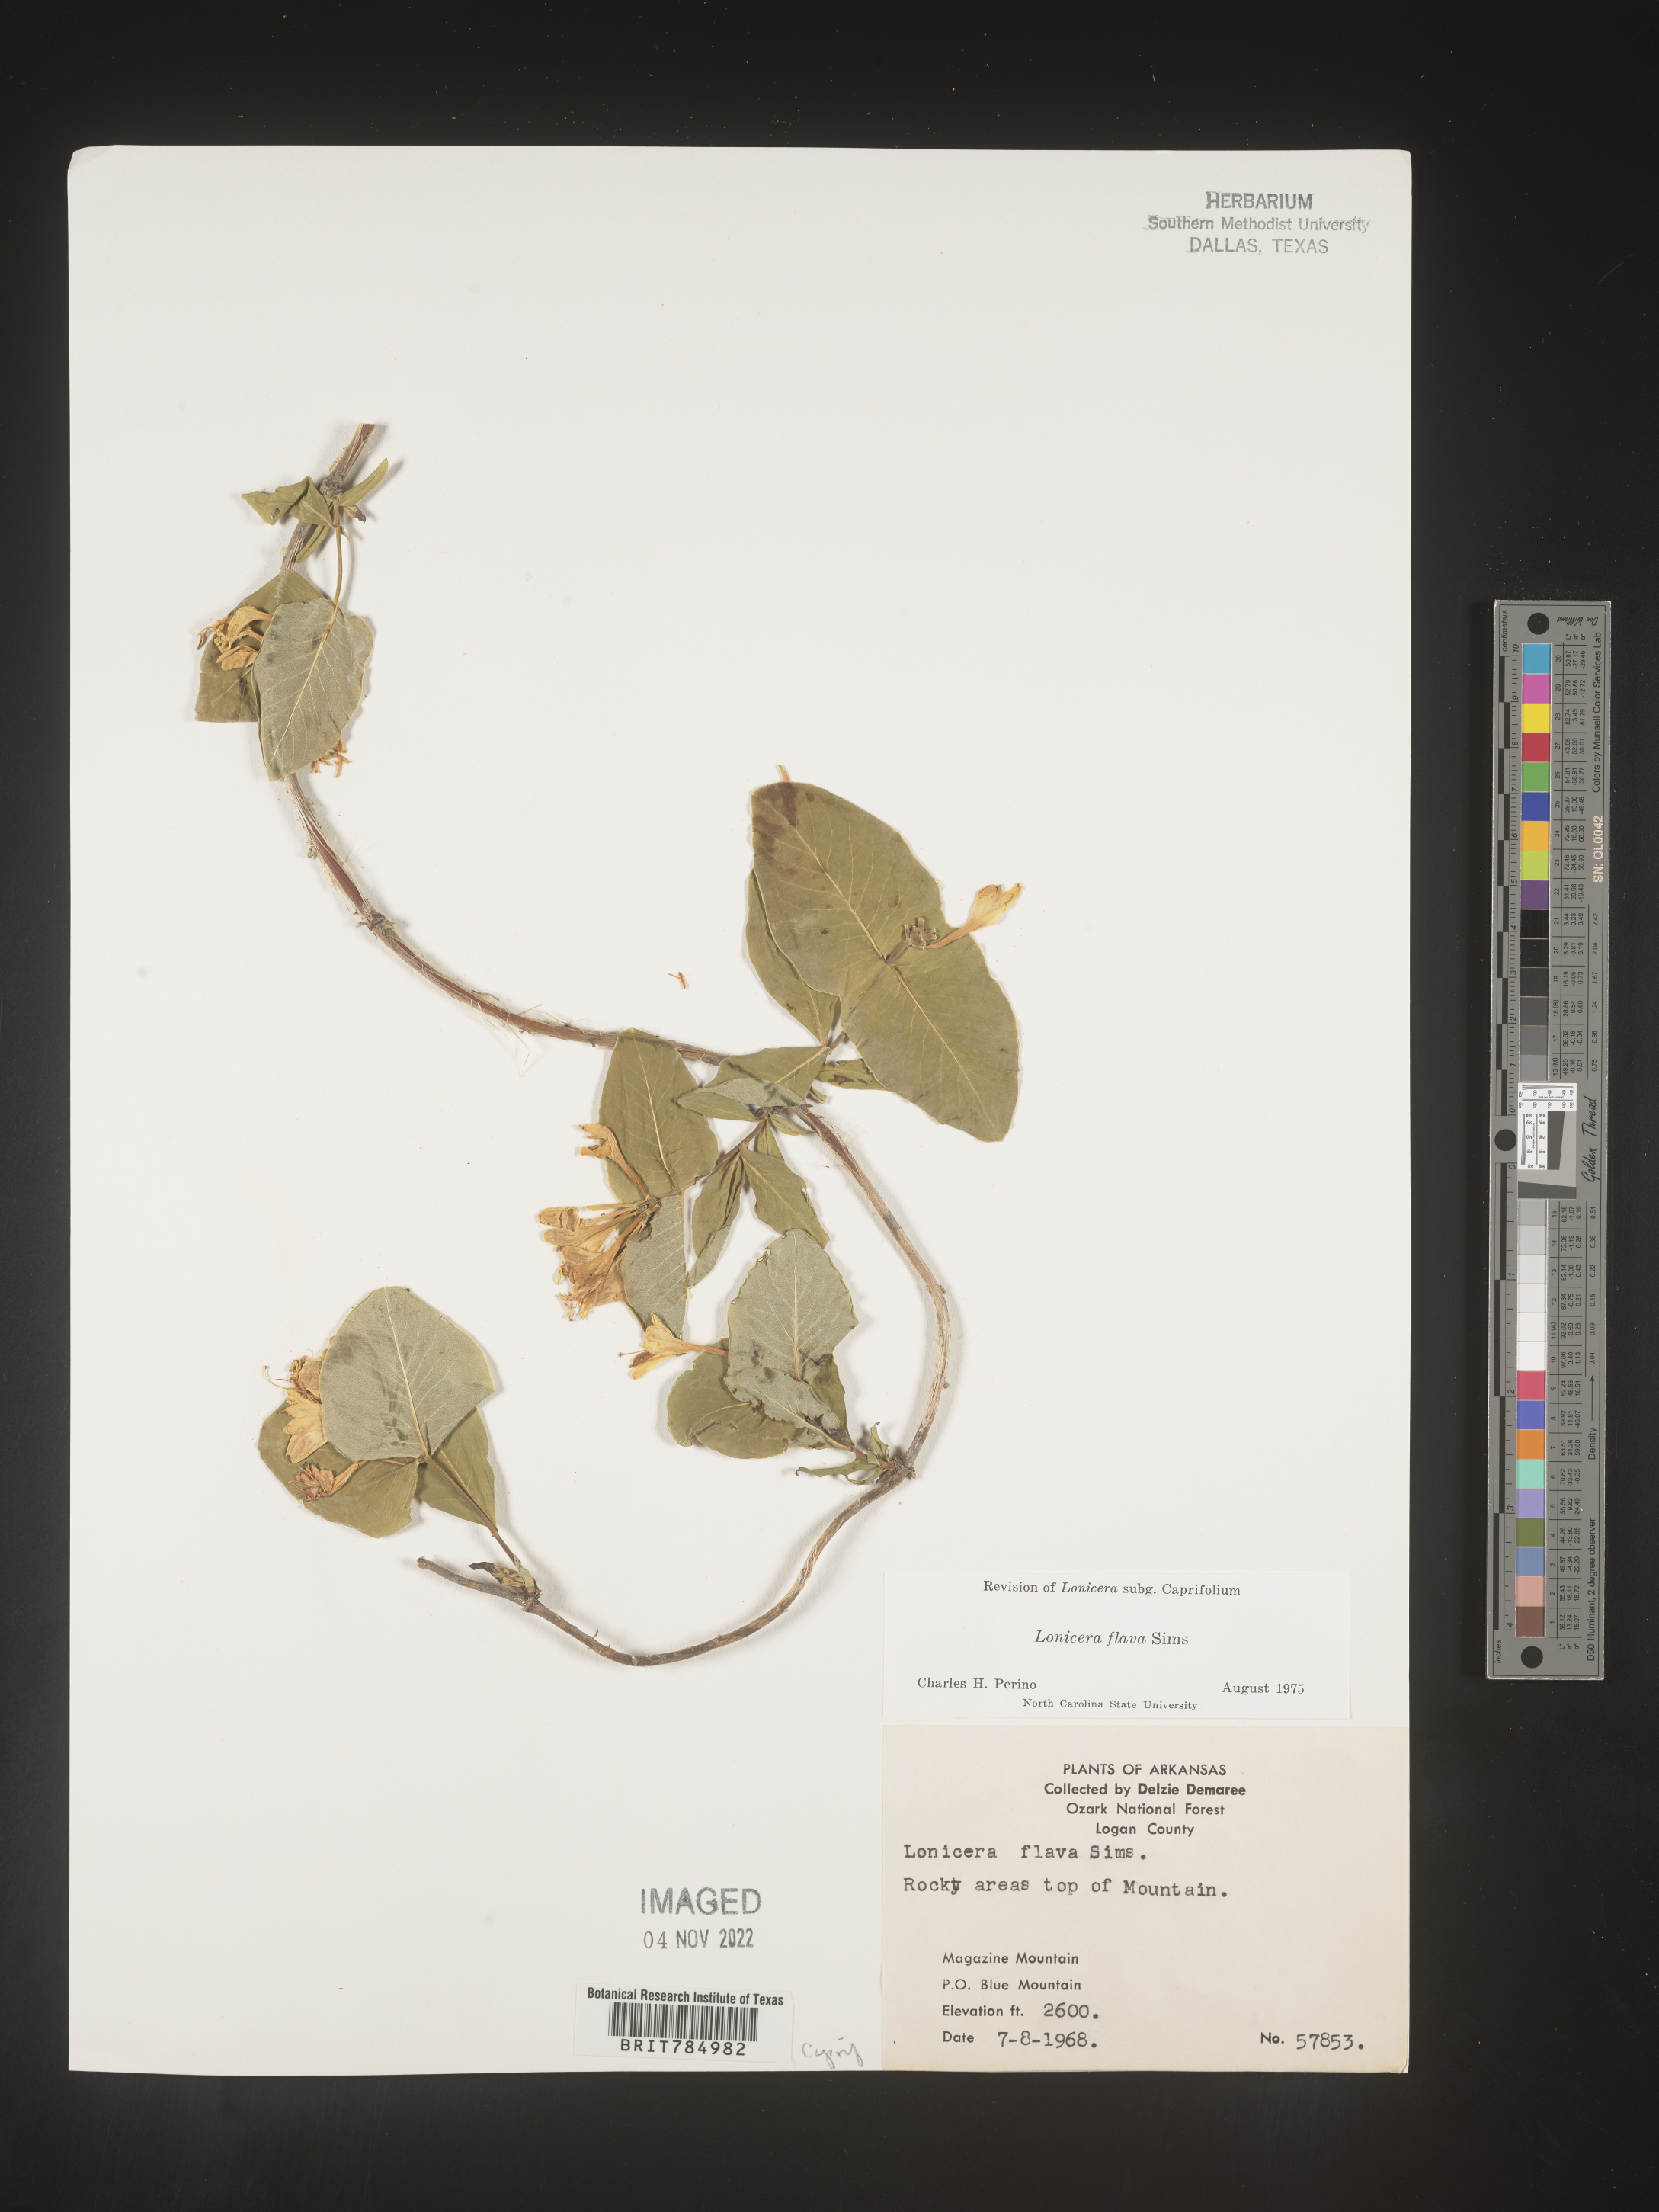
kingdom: Plantae
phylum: Tracheophyta
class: Magnoliopsida
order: Dipsacales
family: Caprifoliaceae
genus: Lonicera
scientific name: Lonicera flava
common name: Yellow honeysuckle
